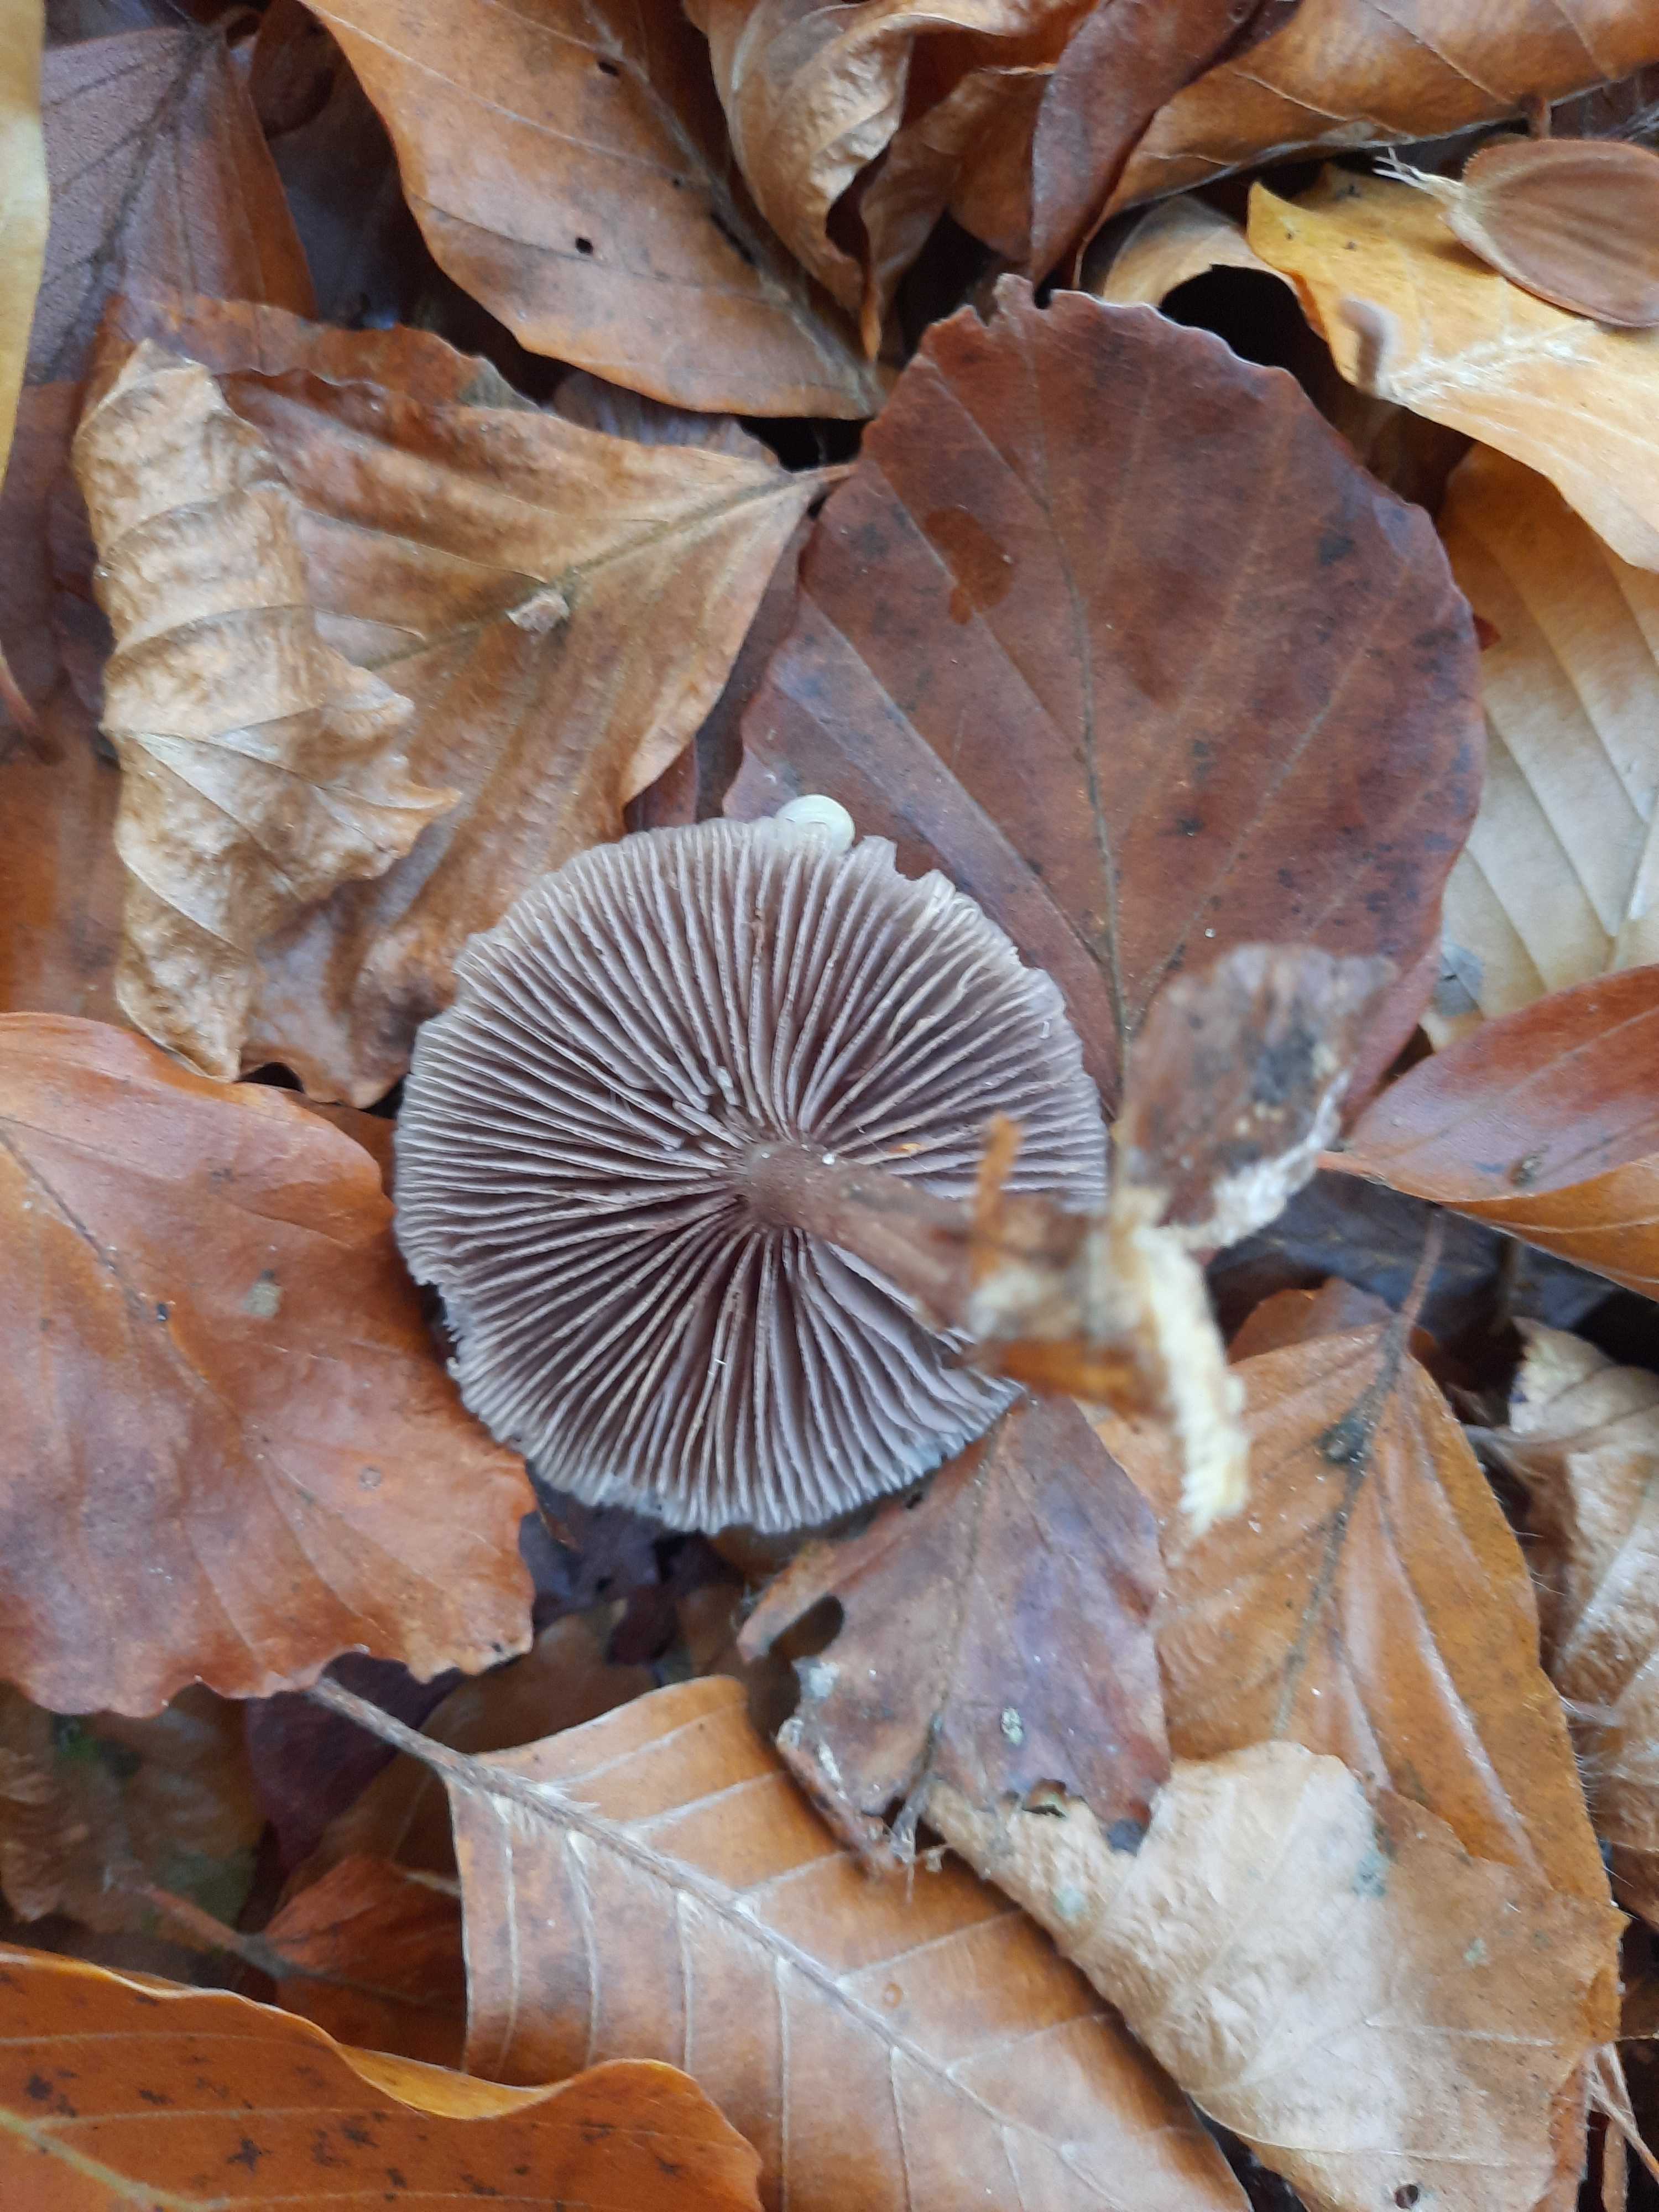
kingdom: Fungi
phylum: Basidiomycota
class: Agaricomycetes
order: Agaricales
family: Mycenaceae
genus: Mycena
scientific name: Mycena pelianthina
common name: mørkbladet huesvamp
